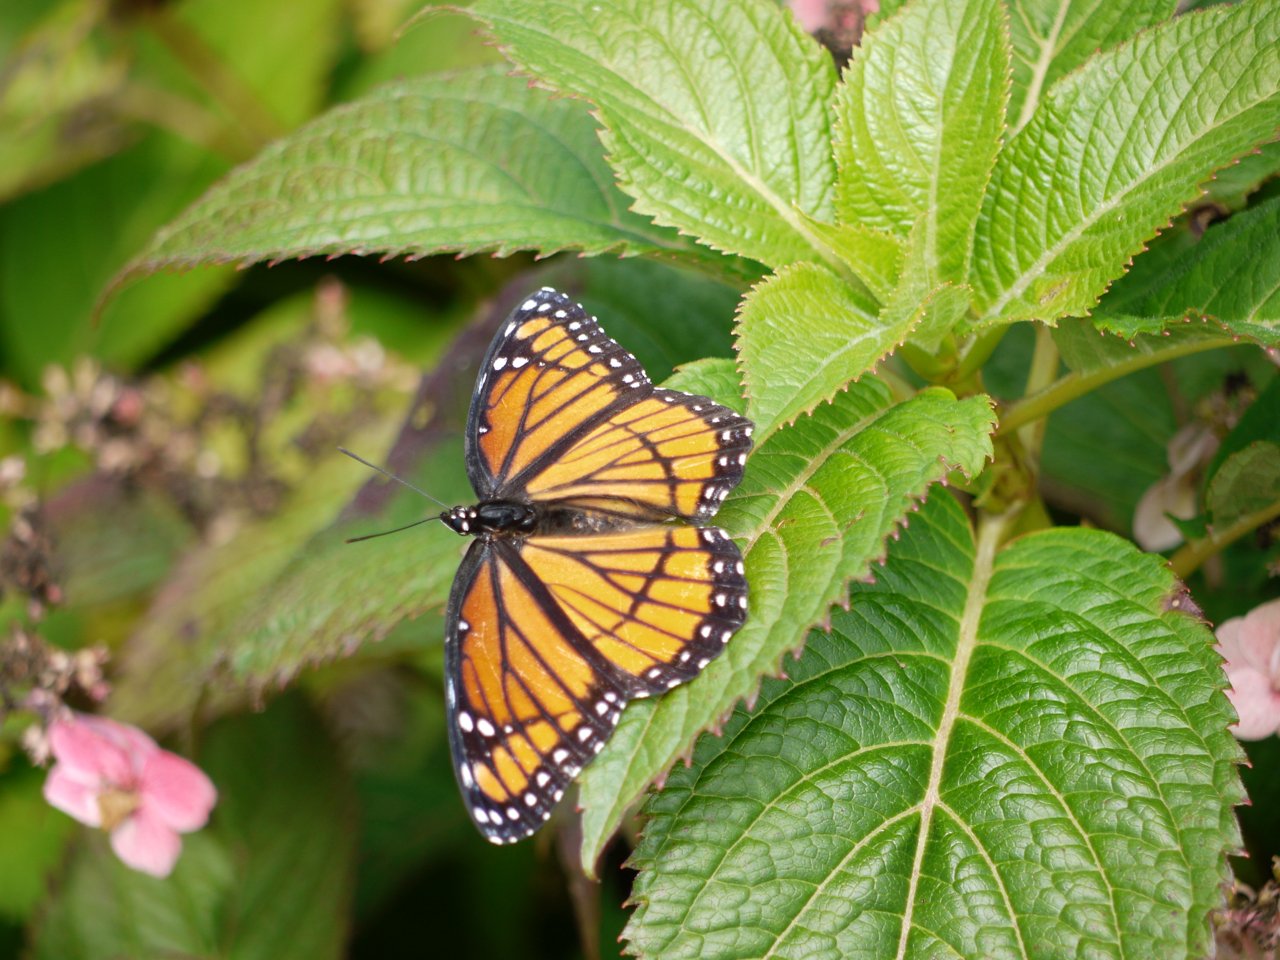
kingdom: Animalia
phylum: Arthropoda
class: Insecta
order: Lepidoptera
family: Nymphalidae
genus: Limenitis
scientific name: Limenitis archippus
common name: Viceroy
